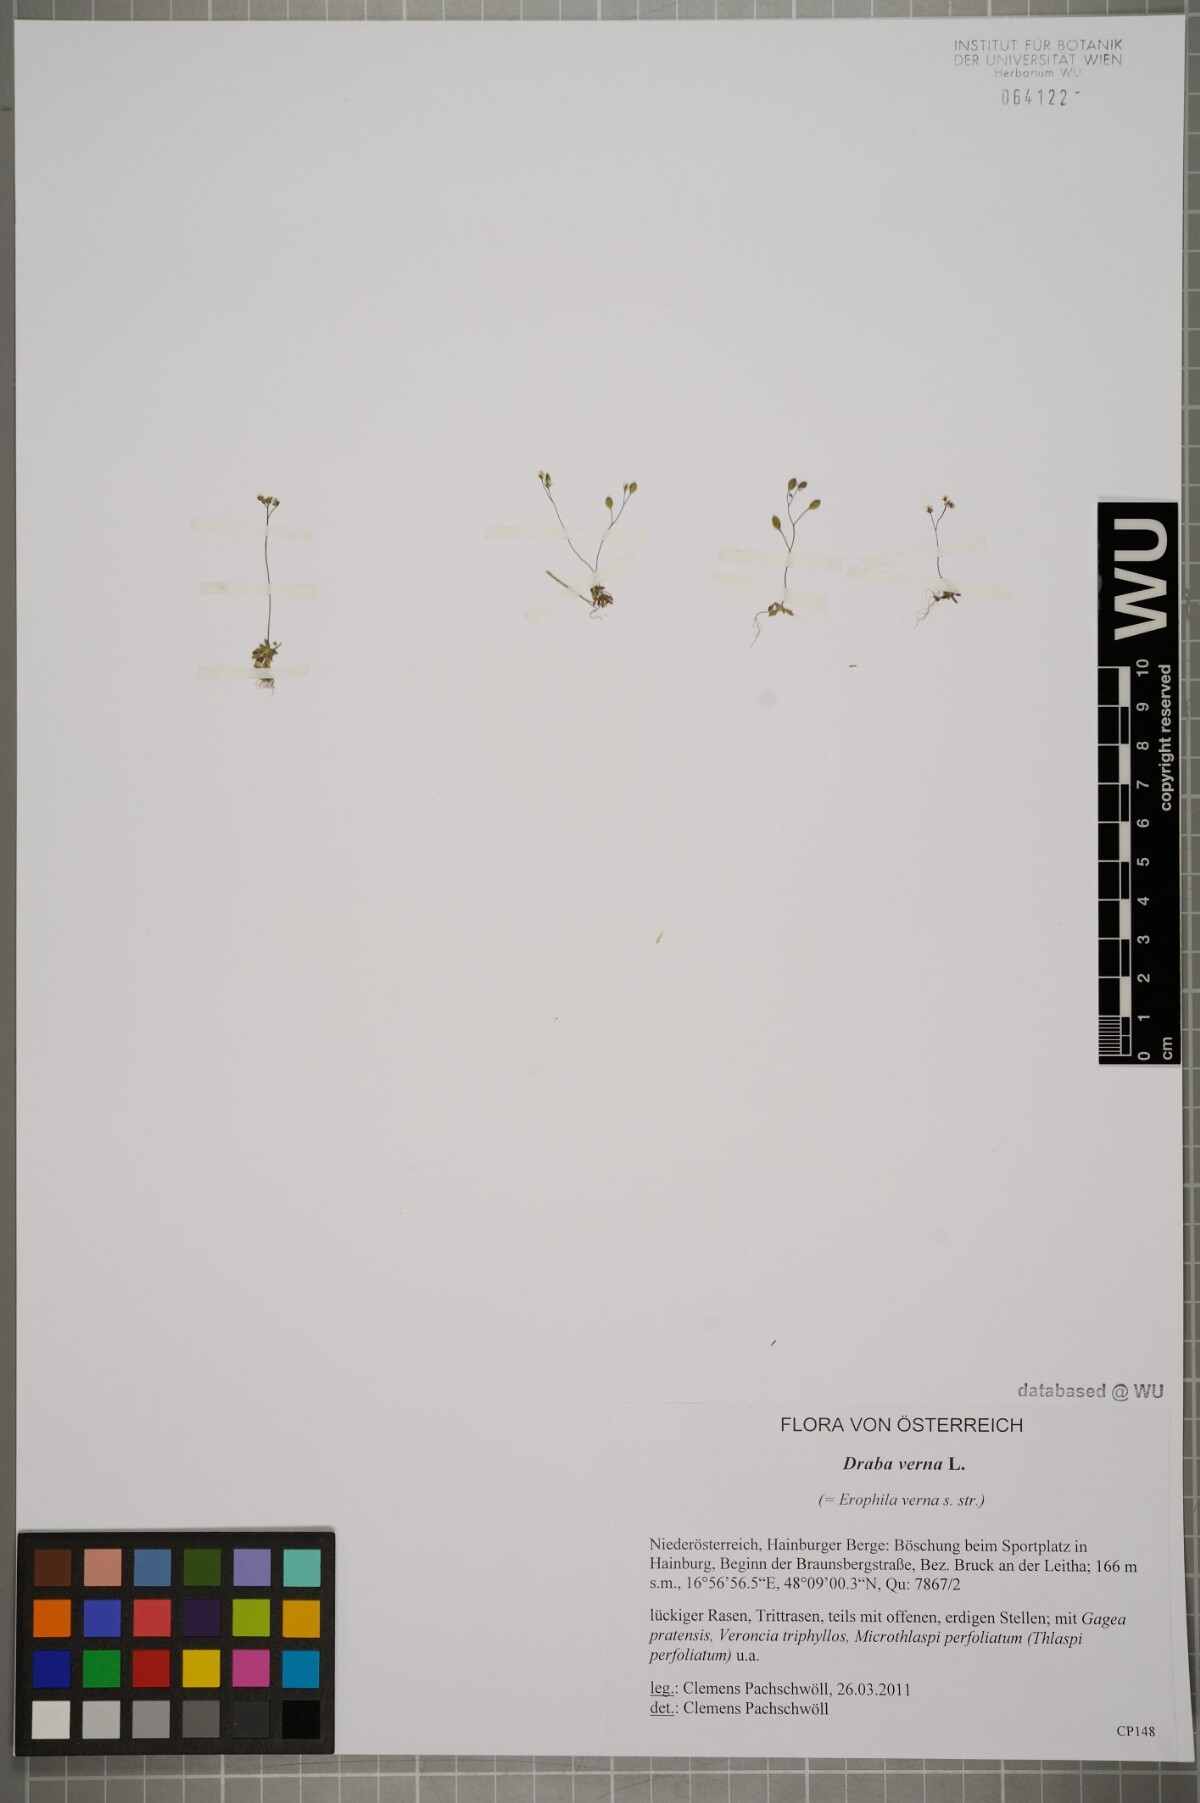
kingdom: Plantae
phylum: Tracheophyta
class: Magnoliopsida
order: Brassicales
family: Brassicaceae
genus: Draba
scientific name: Draba verna
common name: Spring draba
